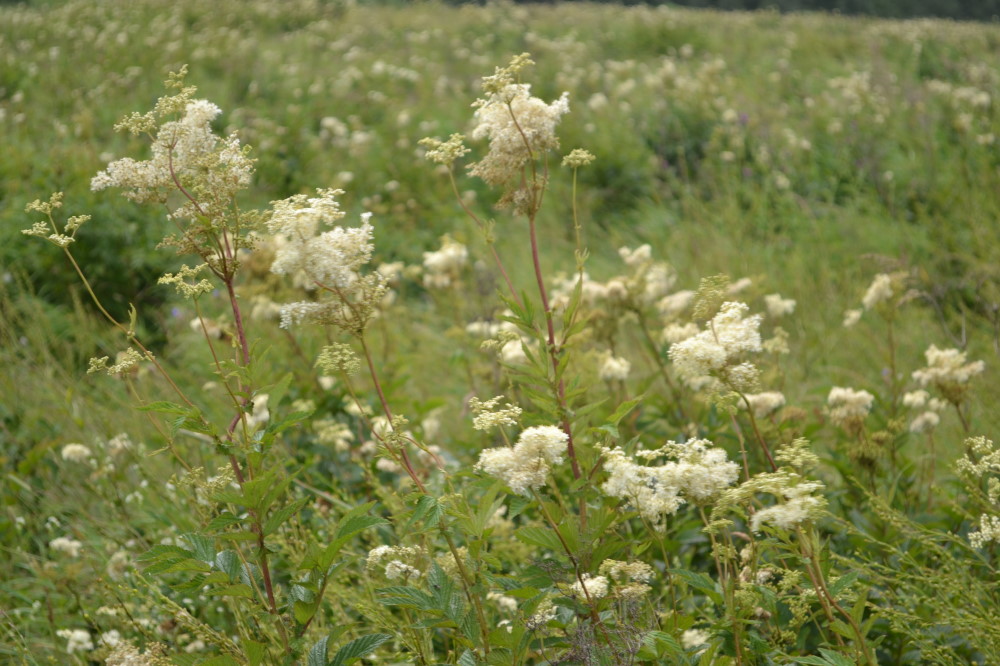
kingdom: Plantae
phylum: Tracheophyta
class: Magnoliopsida
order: Rosales
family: Rosaceae
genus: Filipendula
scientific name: Filipendula ulmaria
